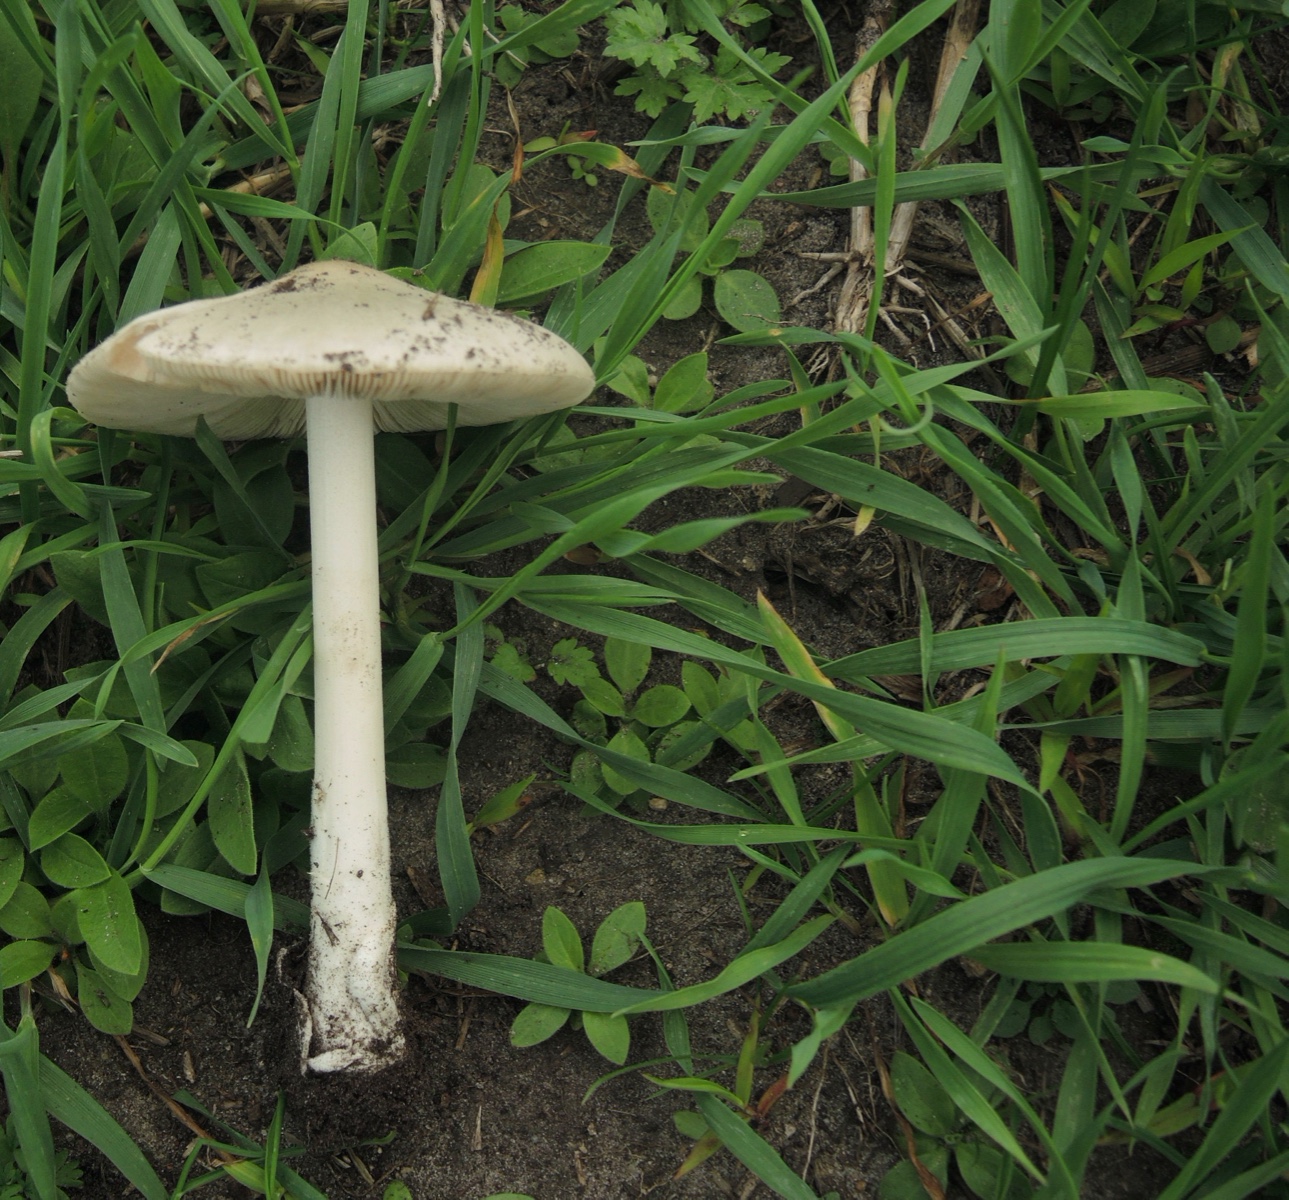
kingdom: Fungi
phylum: Basidiomycota
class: Agaricomycetes
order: Agaricales
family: Pluteaceae
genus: Volvopluteus
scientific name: Volvopluteus gloiocephalus
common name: høj posesvamp
